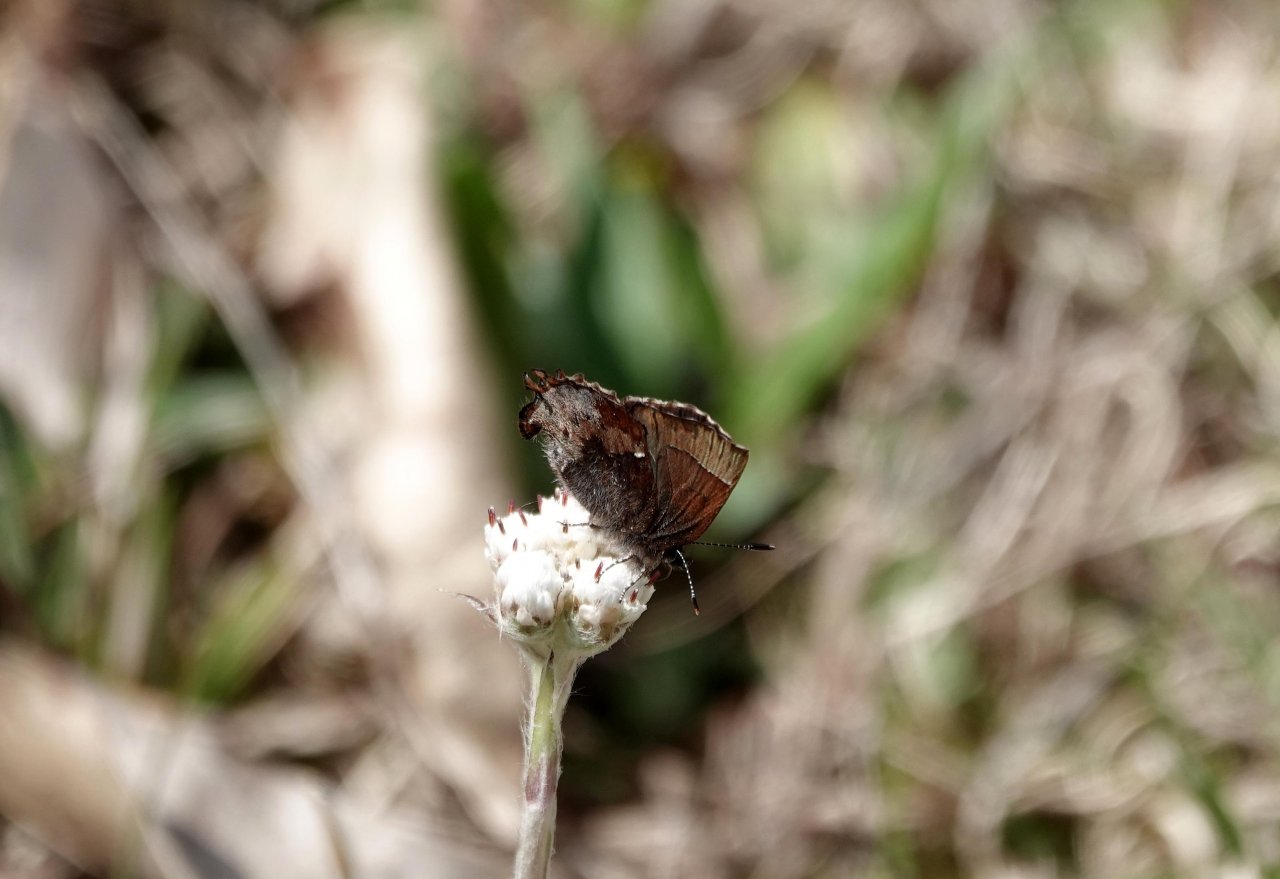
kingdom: Animalia
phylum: Arthropoda
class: Insecta
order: Lepidoptera
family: Lycaenidae
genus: Incisalia
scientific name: Incisalia henrici
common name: Henry's Elfin
